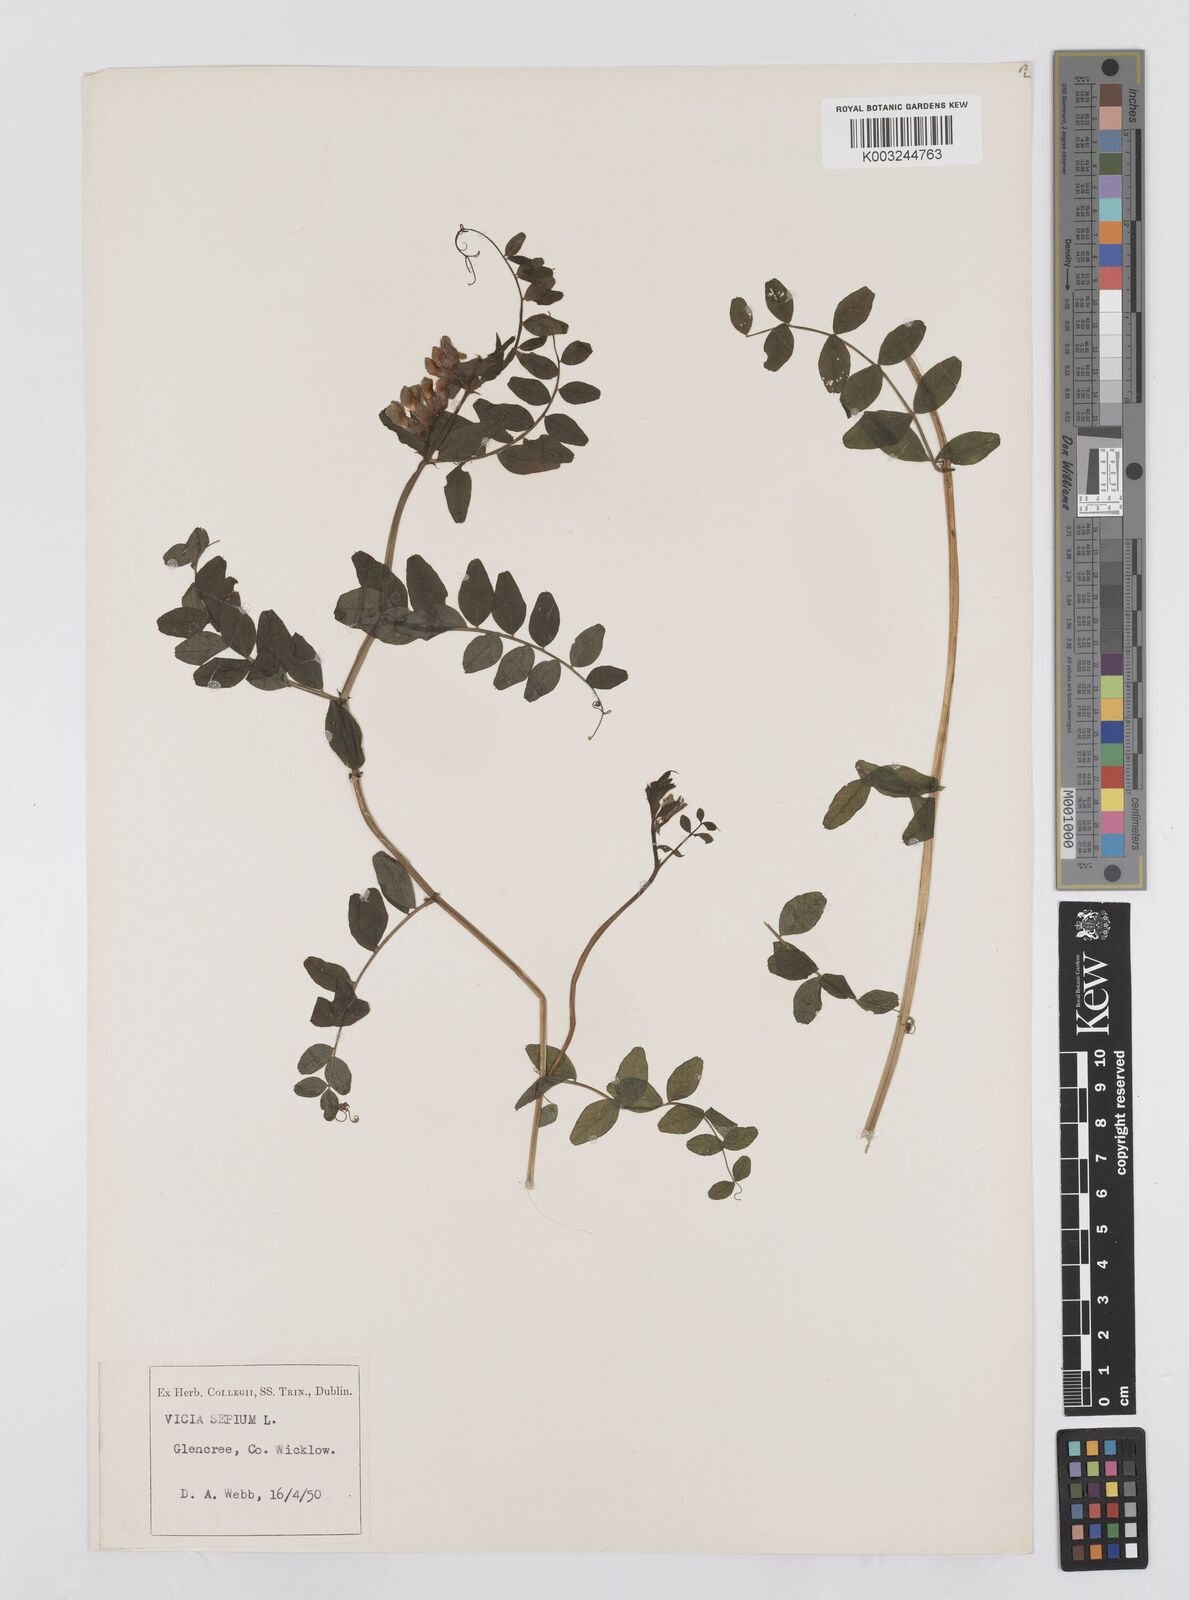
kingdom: Plantae
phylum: Tracheophyta
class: Magnoliopsida
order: Fabales
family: Fabaceae
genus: Vicia
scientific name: Vicia sepium
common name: Bush vetch
